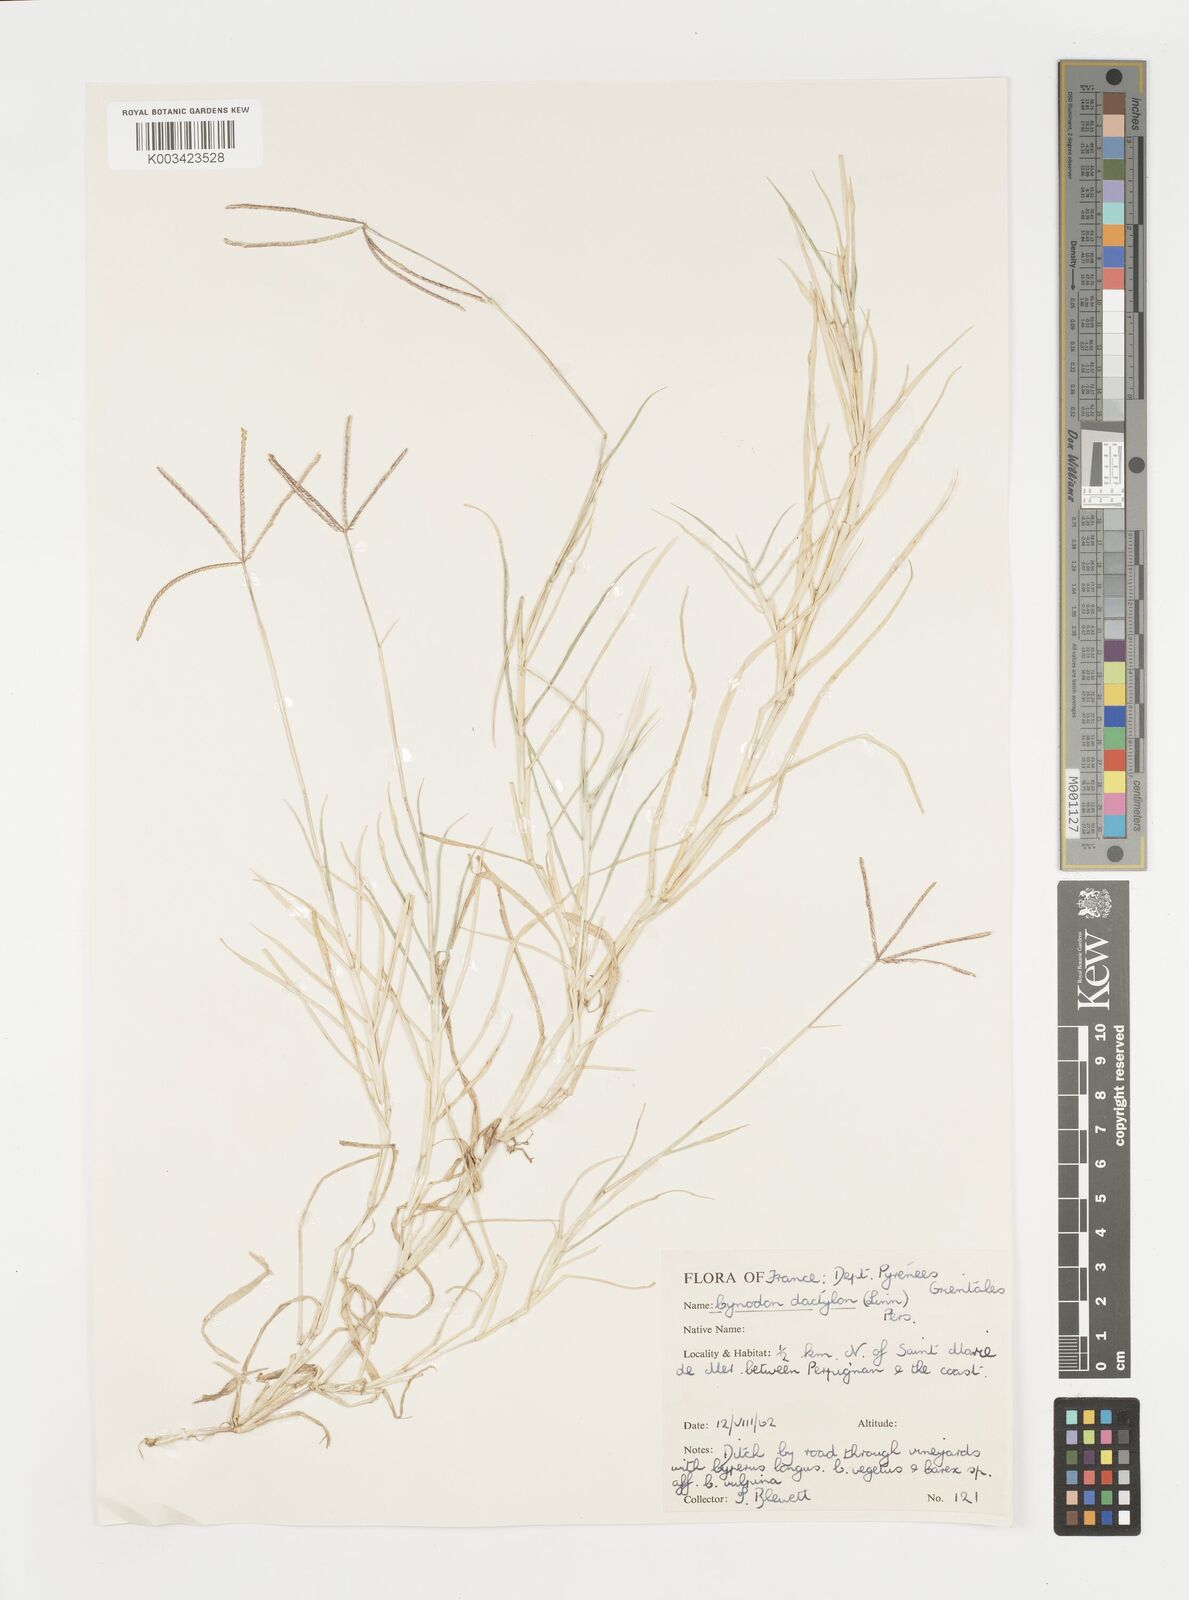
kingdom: Plantae
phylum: Tracheophyta
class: Liliopsida
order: Poales
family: Poaceae
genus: Cynodon
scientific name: Cynodon dactylon
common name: Bermuda grass
